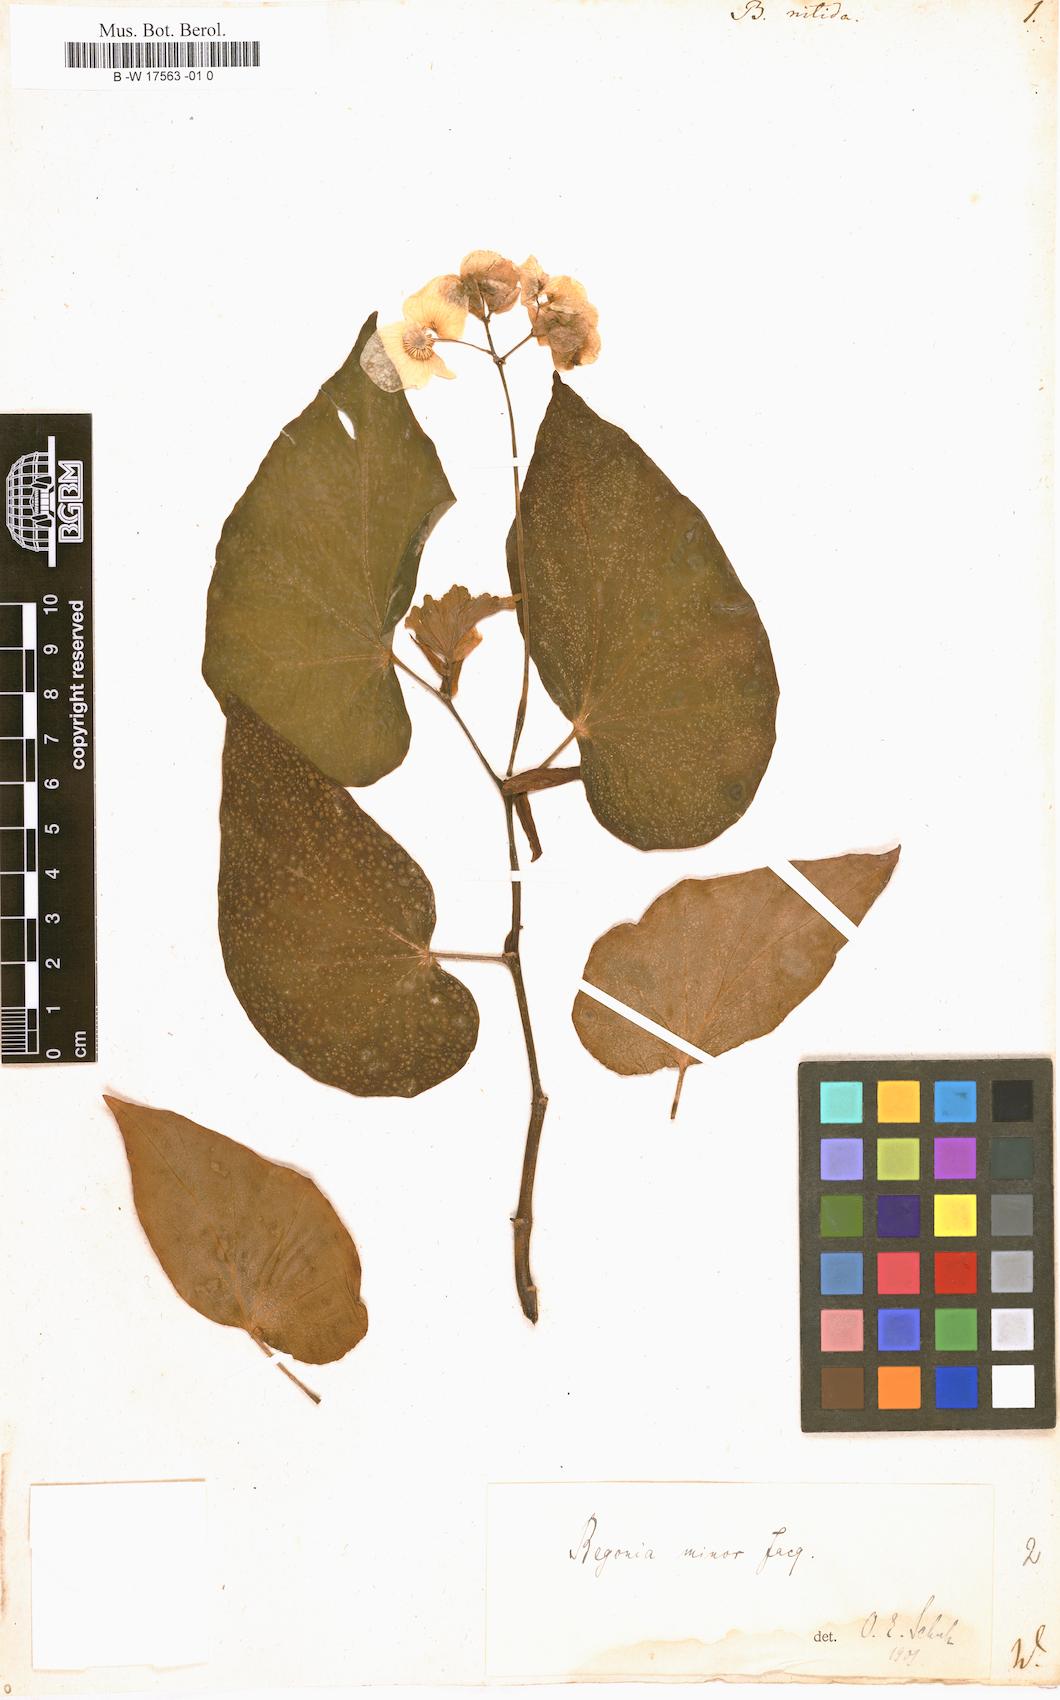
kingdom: Plantae
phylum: Tracheophyta
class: Magnoliopsida
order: Cucurbitales
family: Begoniaceae
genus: Begonia
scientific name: Begonia
